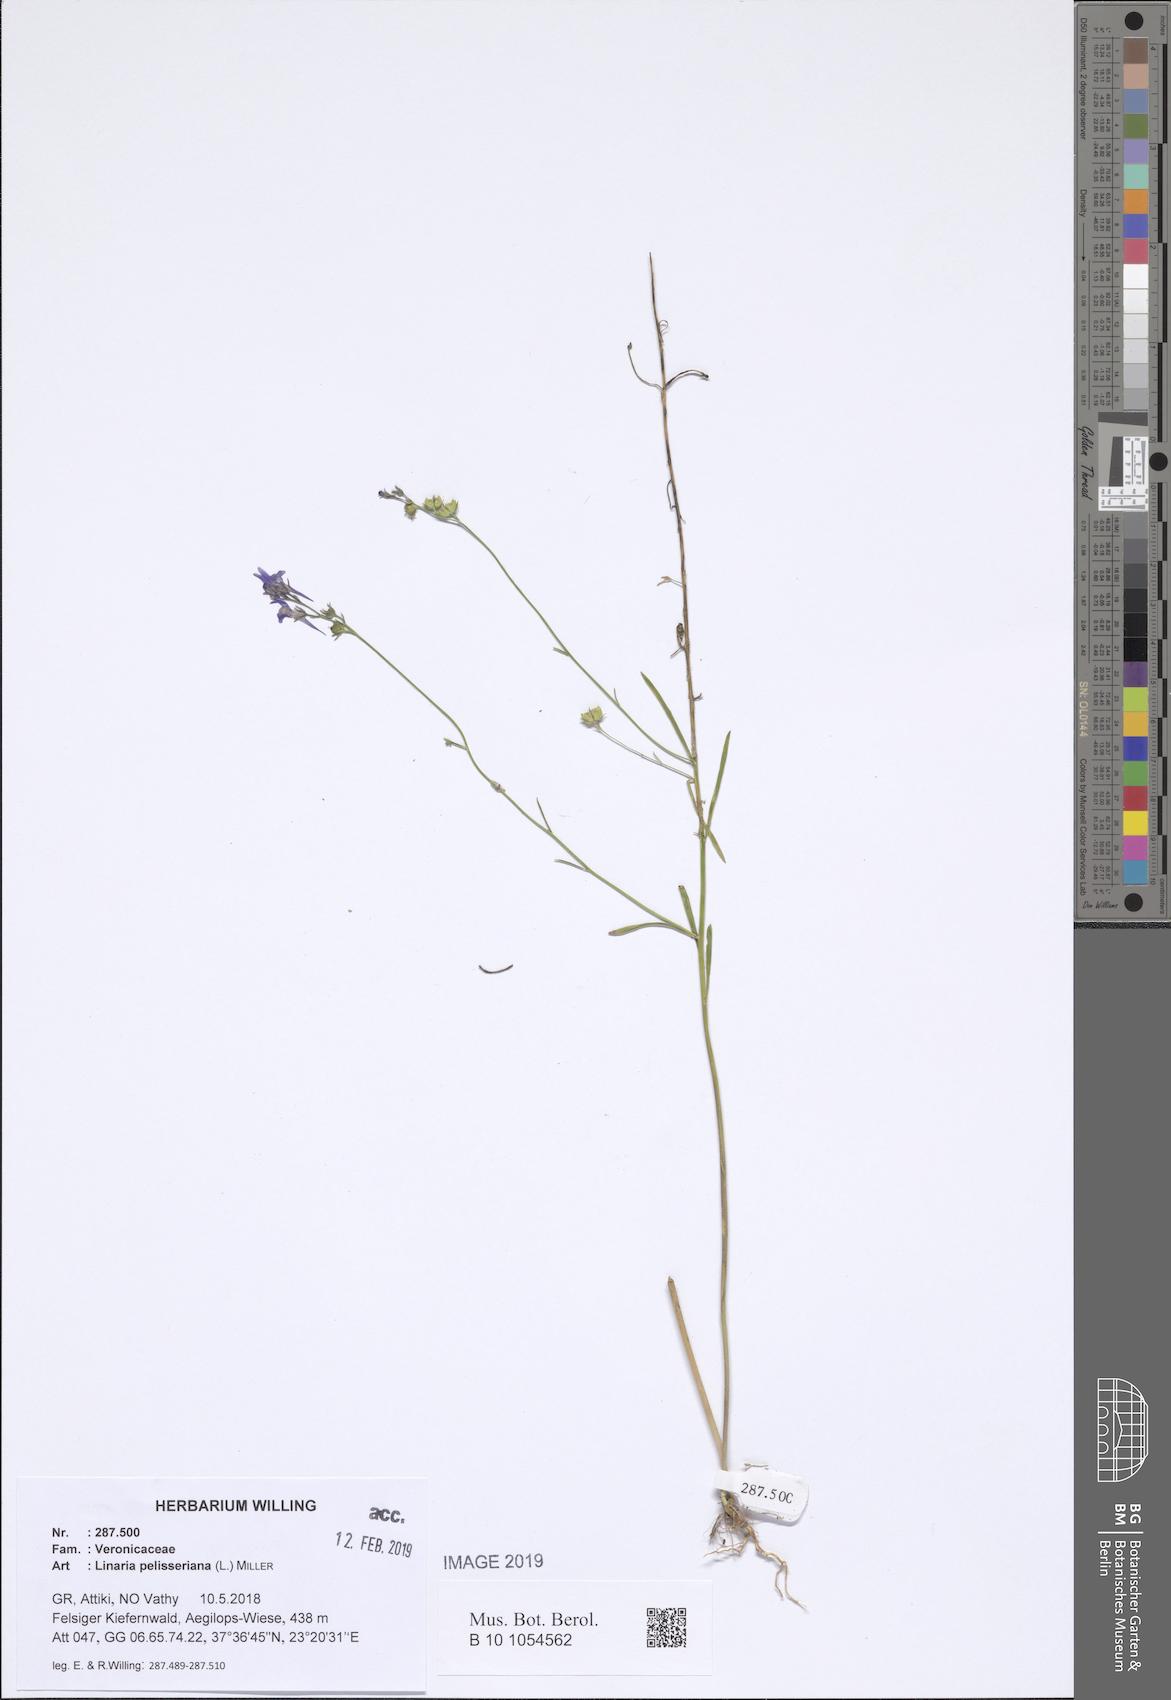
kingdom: Plantae
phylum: Tracheophyta
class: Magnoliopsida
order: Lamiales
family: Plantaginaceae
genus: Linaria
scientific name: Linaria pelisseriana
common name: Jersey toadflax
